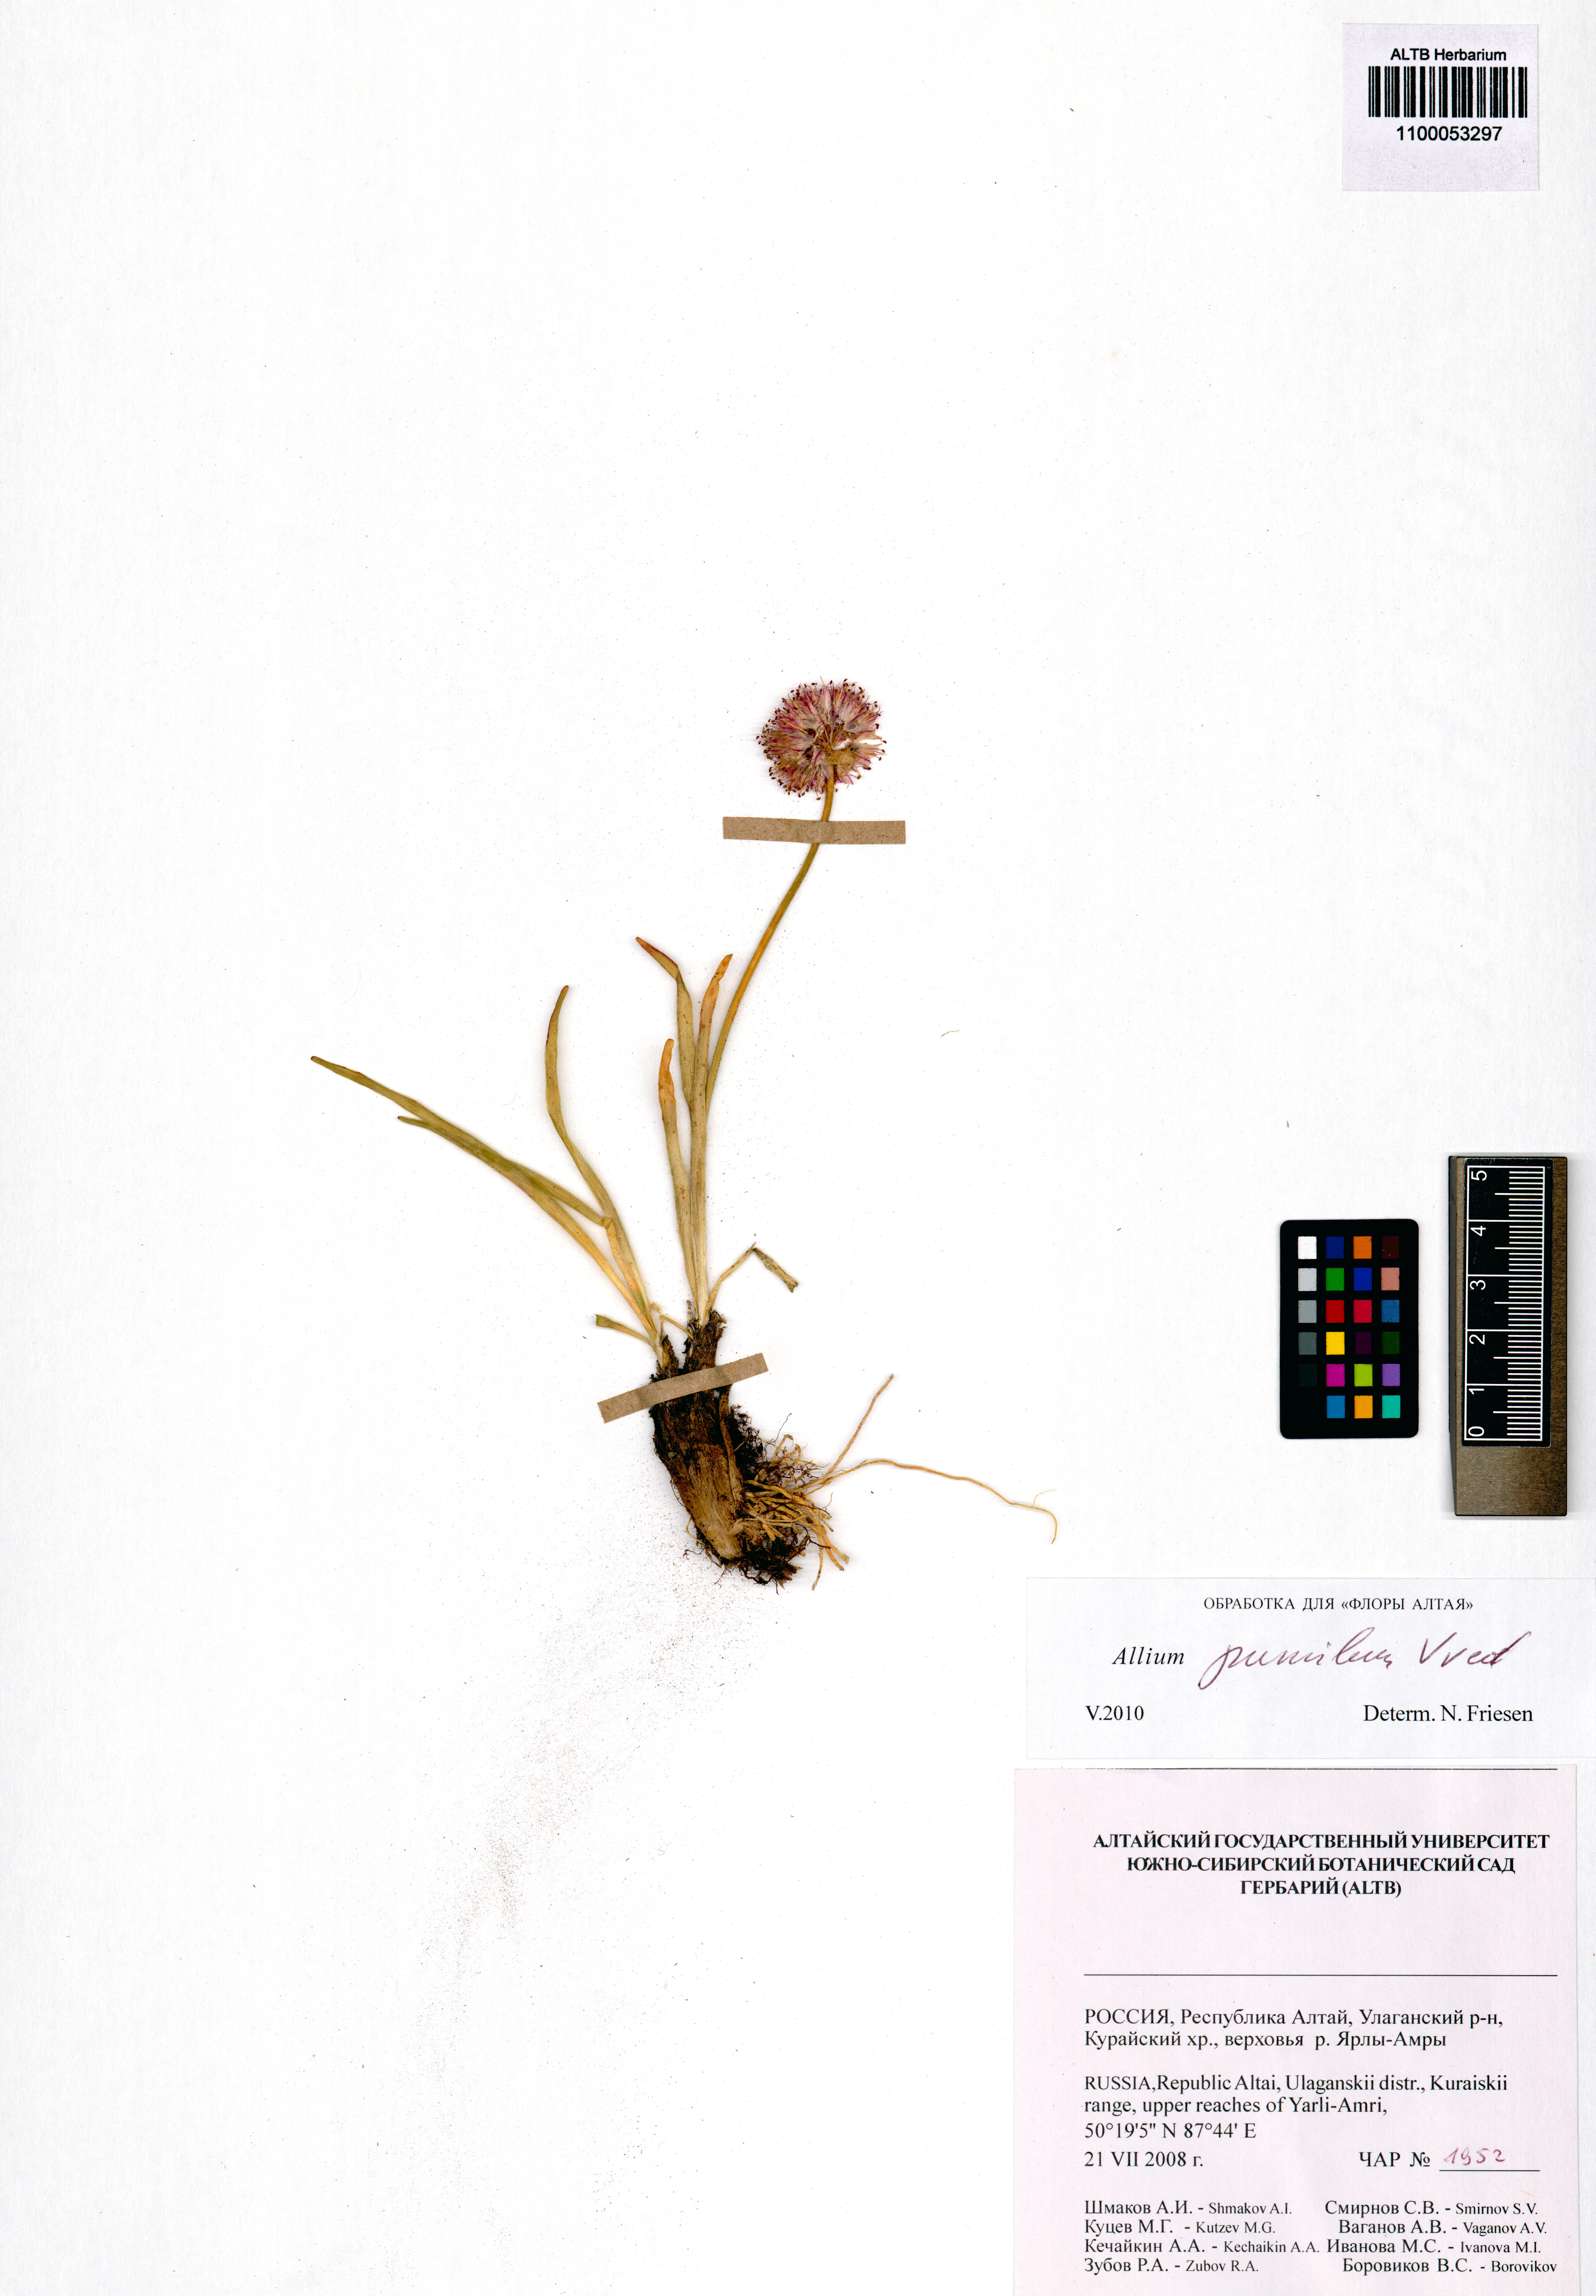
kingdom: Plantae
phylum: Tracheophyta
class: Liliopsida
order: Asparagales
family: Amaryllidaceae
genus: Allium
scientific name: Allium pumilum
